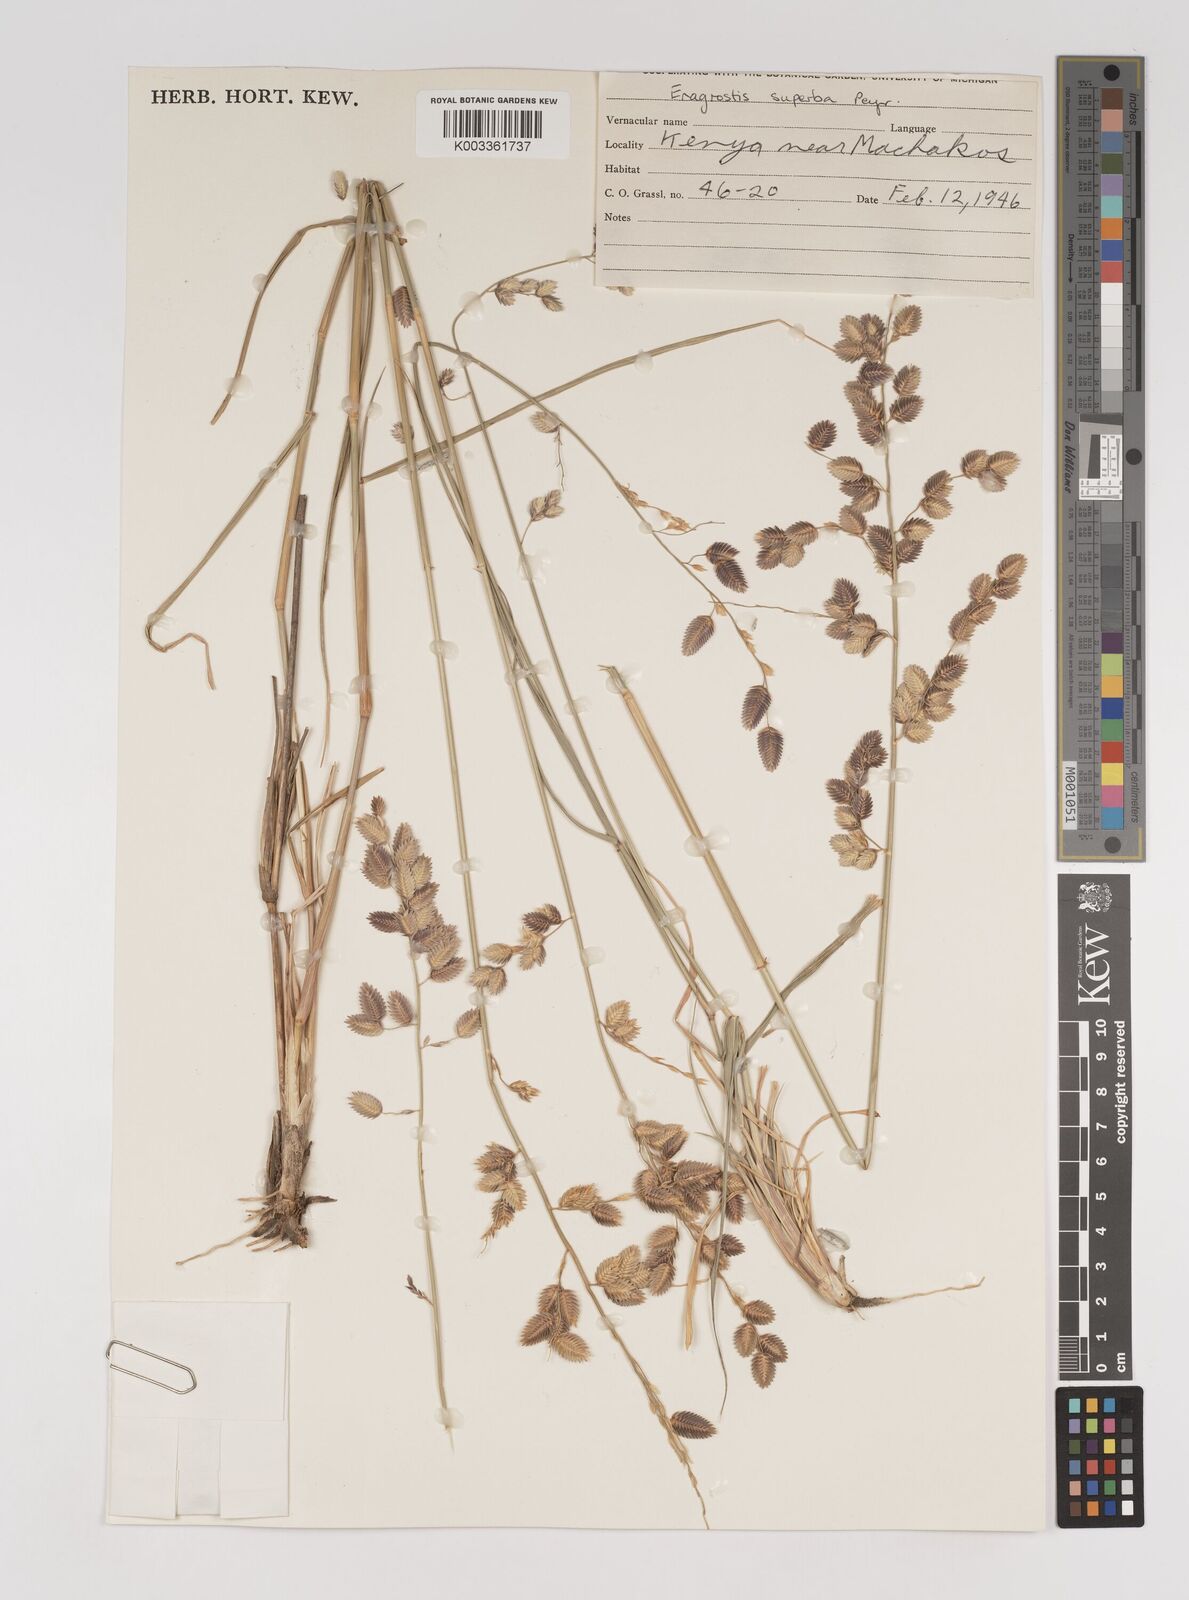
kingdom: Plantae
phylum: Tracheophyta
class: Liliopsida
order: Poales
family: Poaceae
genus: Eragrostis
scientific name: Eragrostis superba
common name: Wilman lovegrass
